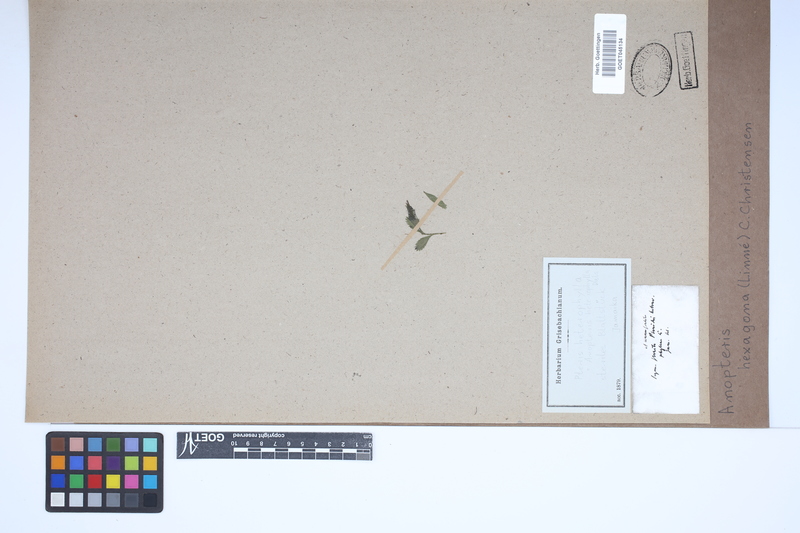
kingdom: Plantae
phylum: Tracheophyta
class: Polypodiopsida
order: Polypodiales
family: Pteridaceae
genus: Pteris
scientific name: Pteris hexagona
